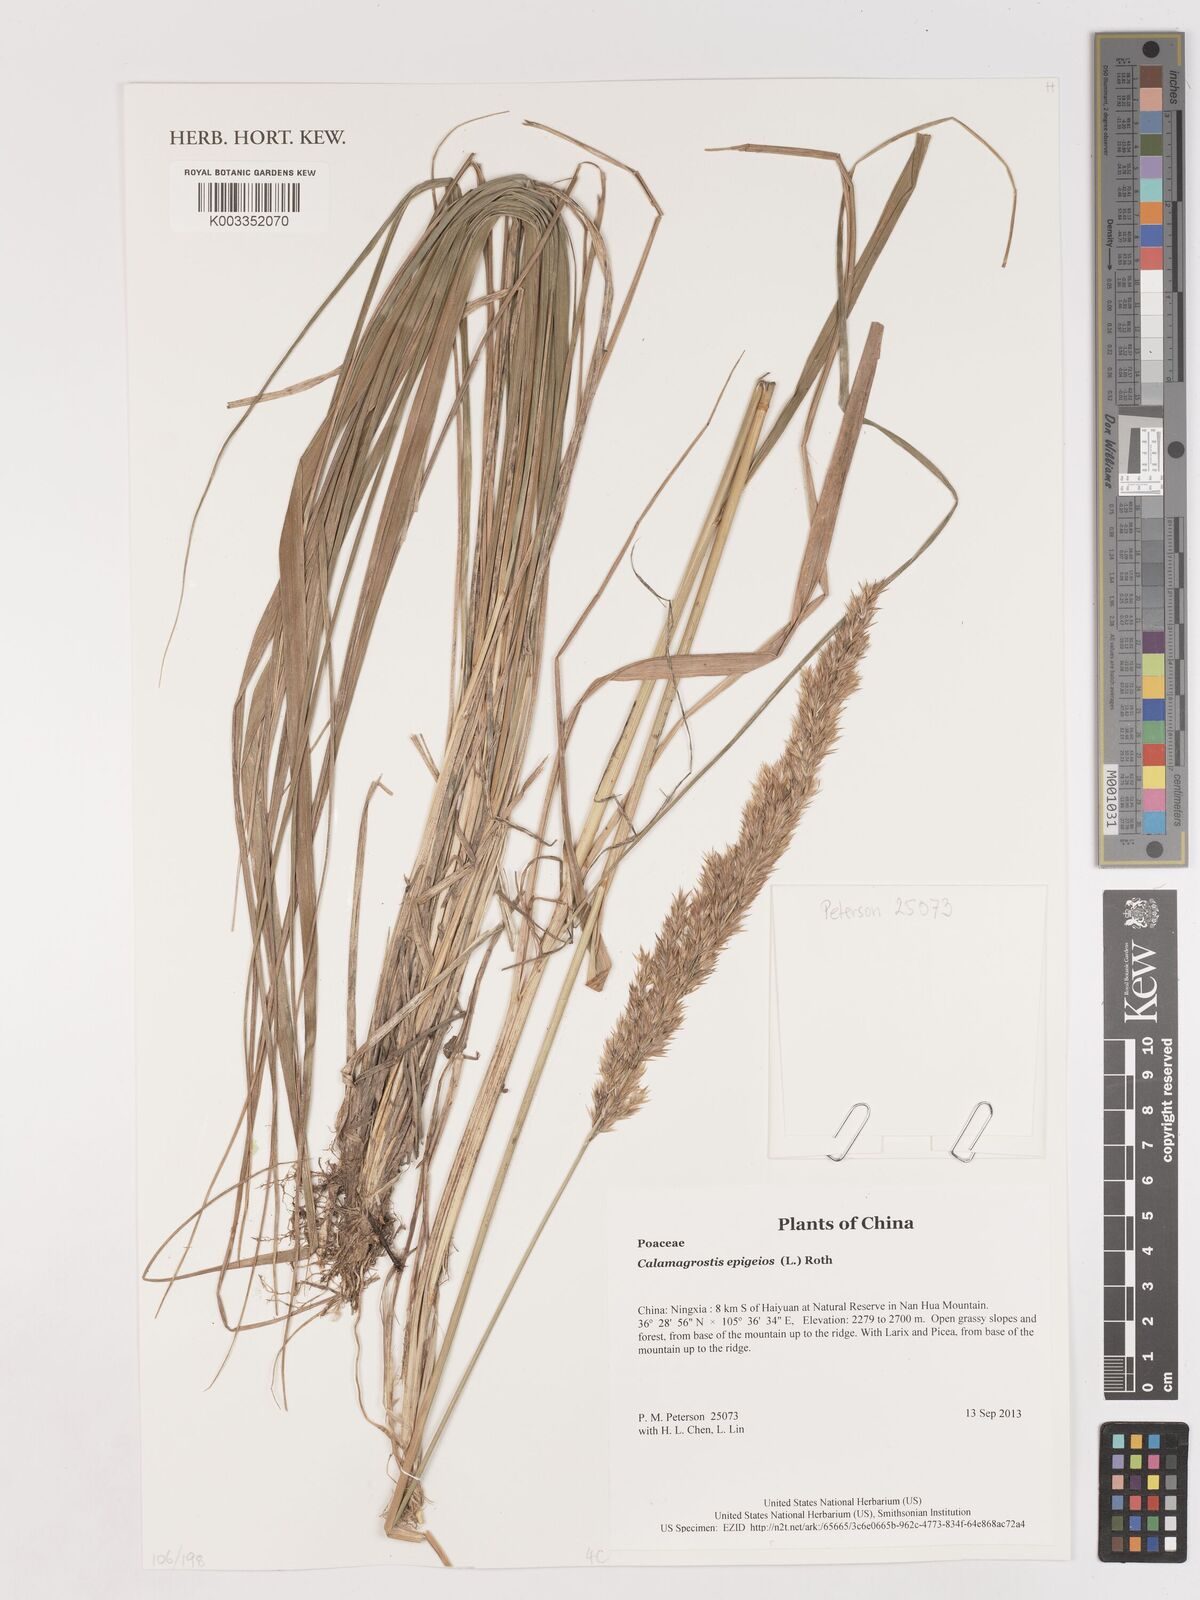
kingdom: Plantae
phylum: Tracheophyta
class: Liliopsida
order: Poales
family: Poaceae
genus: Calamagrostis
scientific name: Calamagrostis epigejos
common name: Wood small-reed
